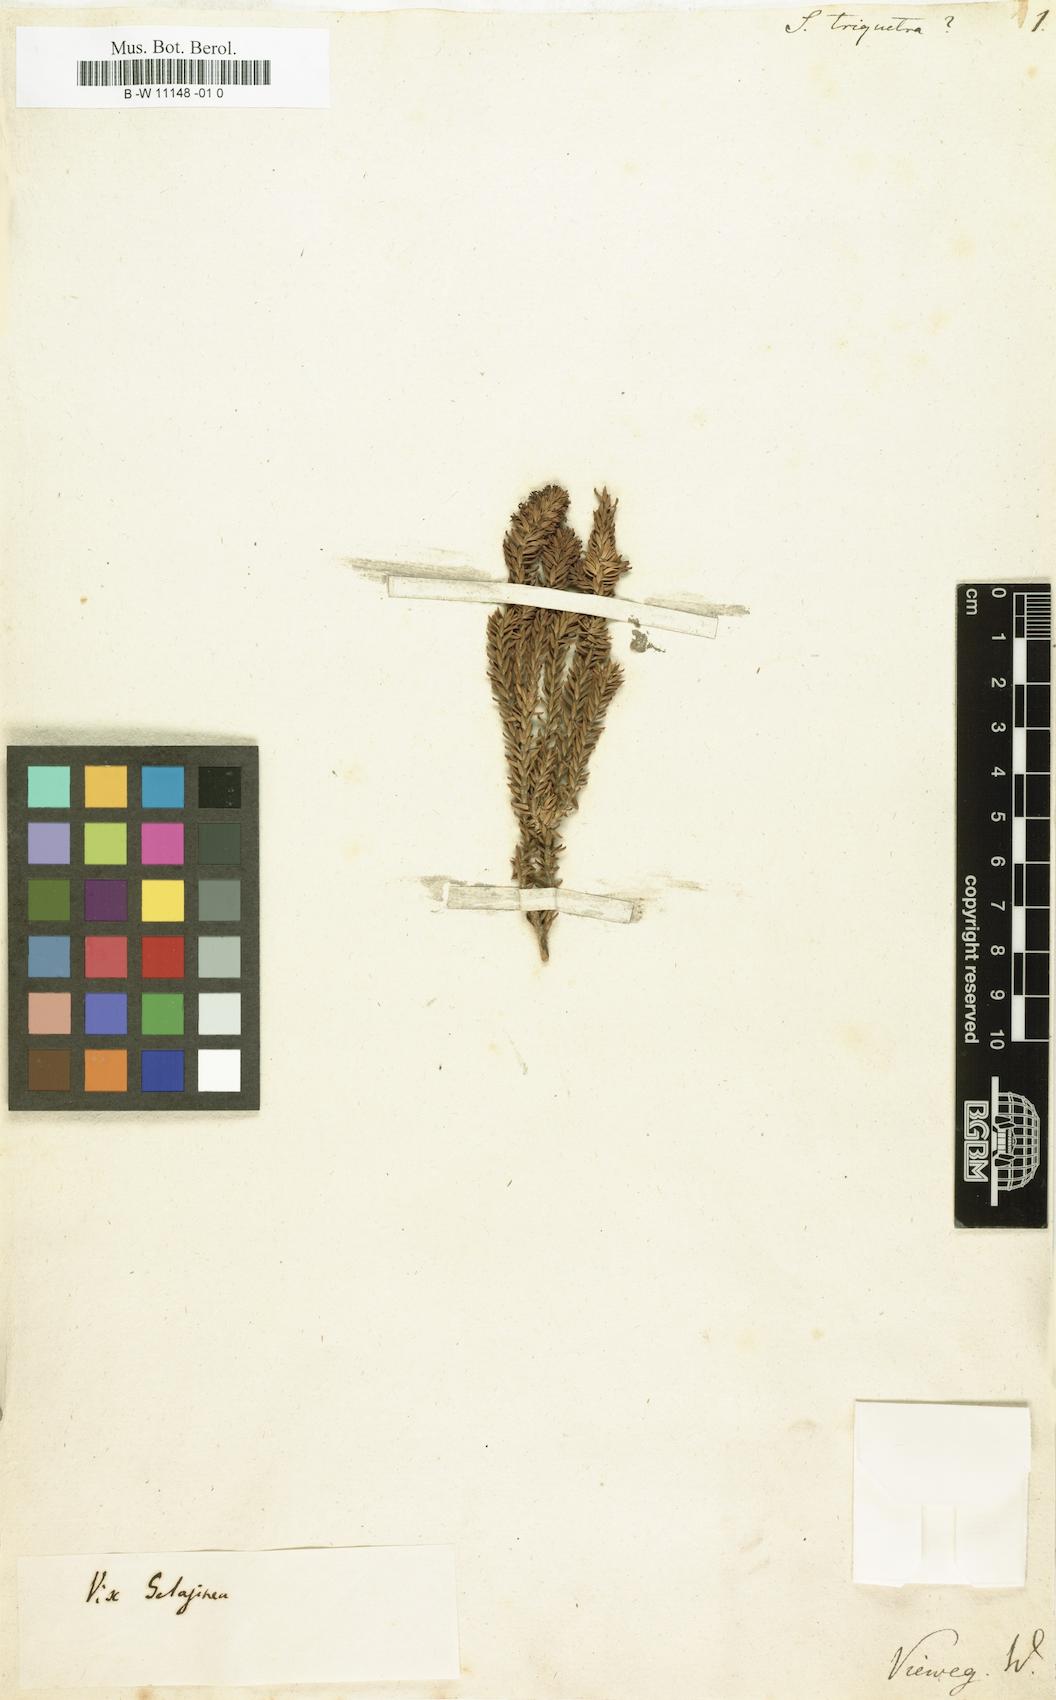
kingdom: Plantae
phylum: Tracheophyta
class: Magnoliopsida
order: Lamiales
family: Scrophulariaceae
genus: Selago
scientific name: Selago fruticosa
